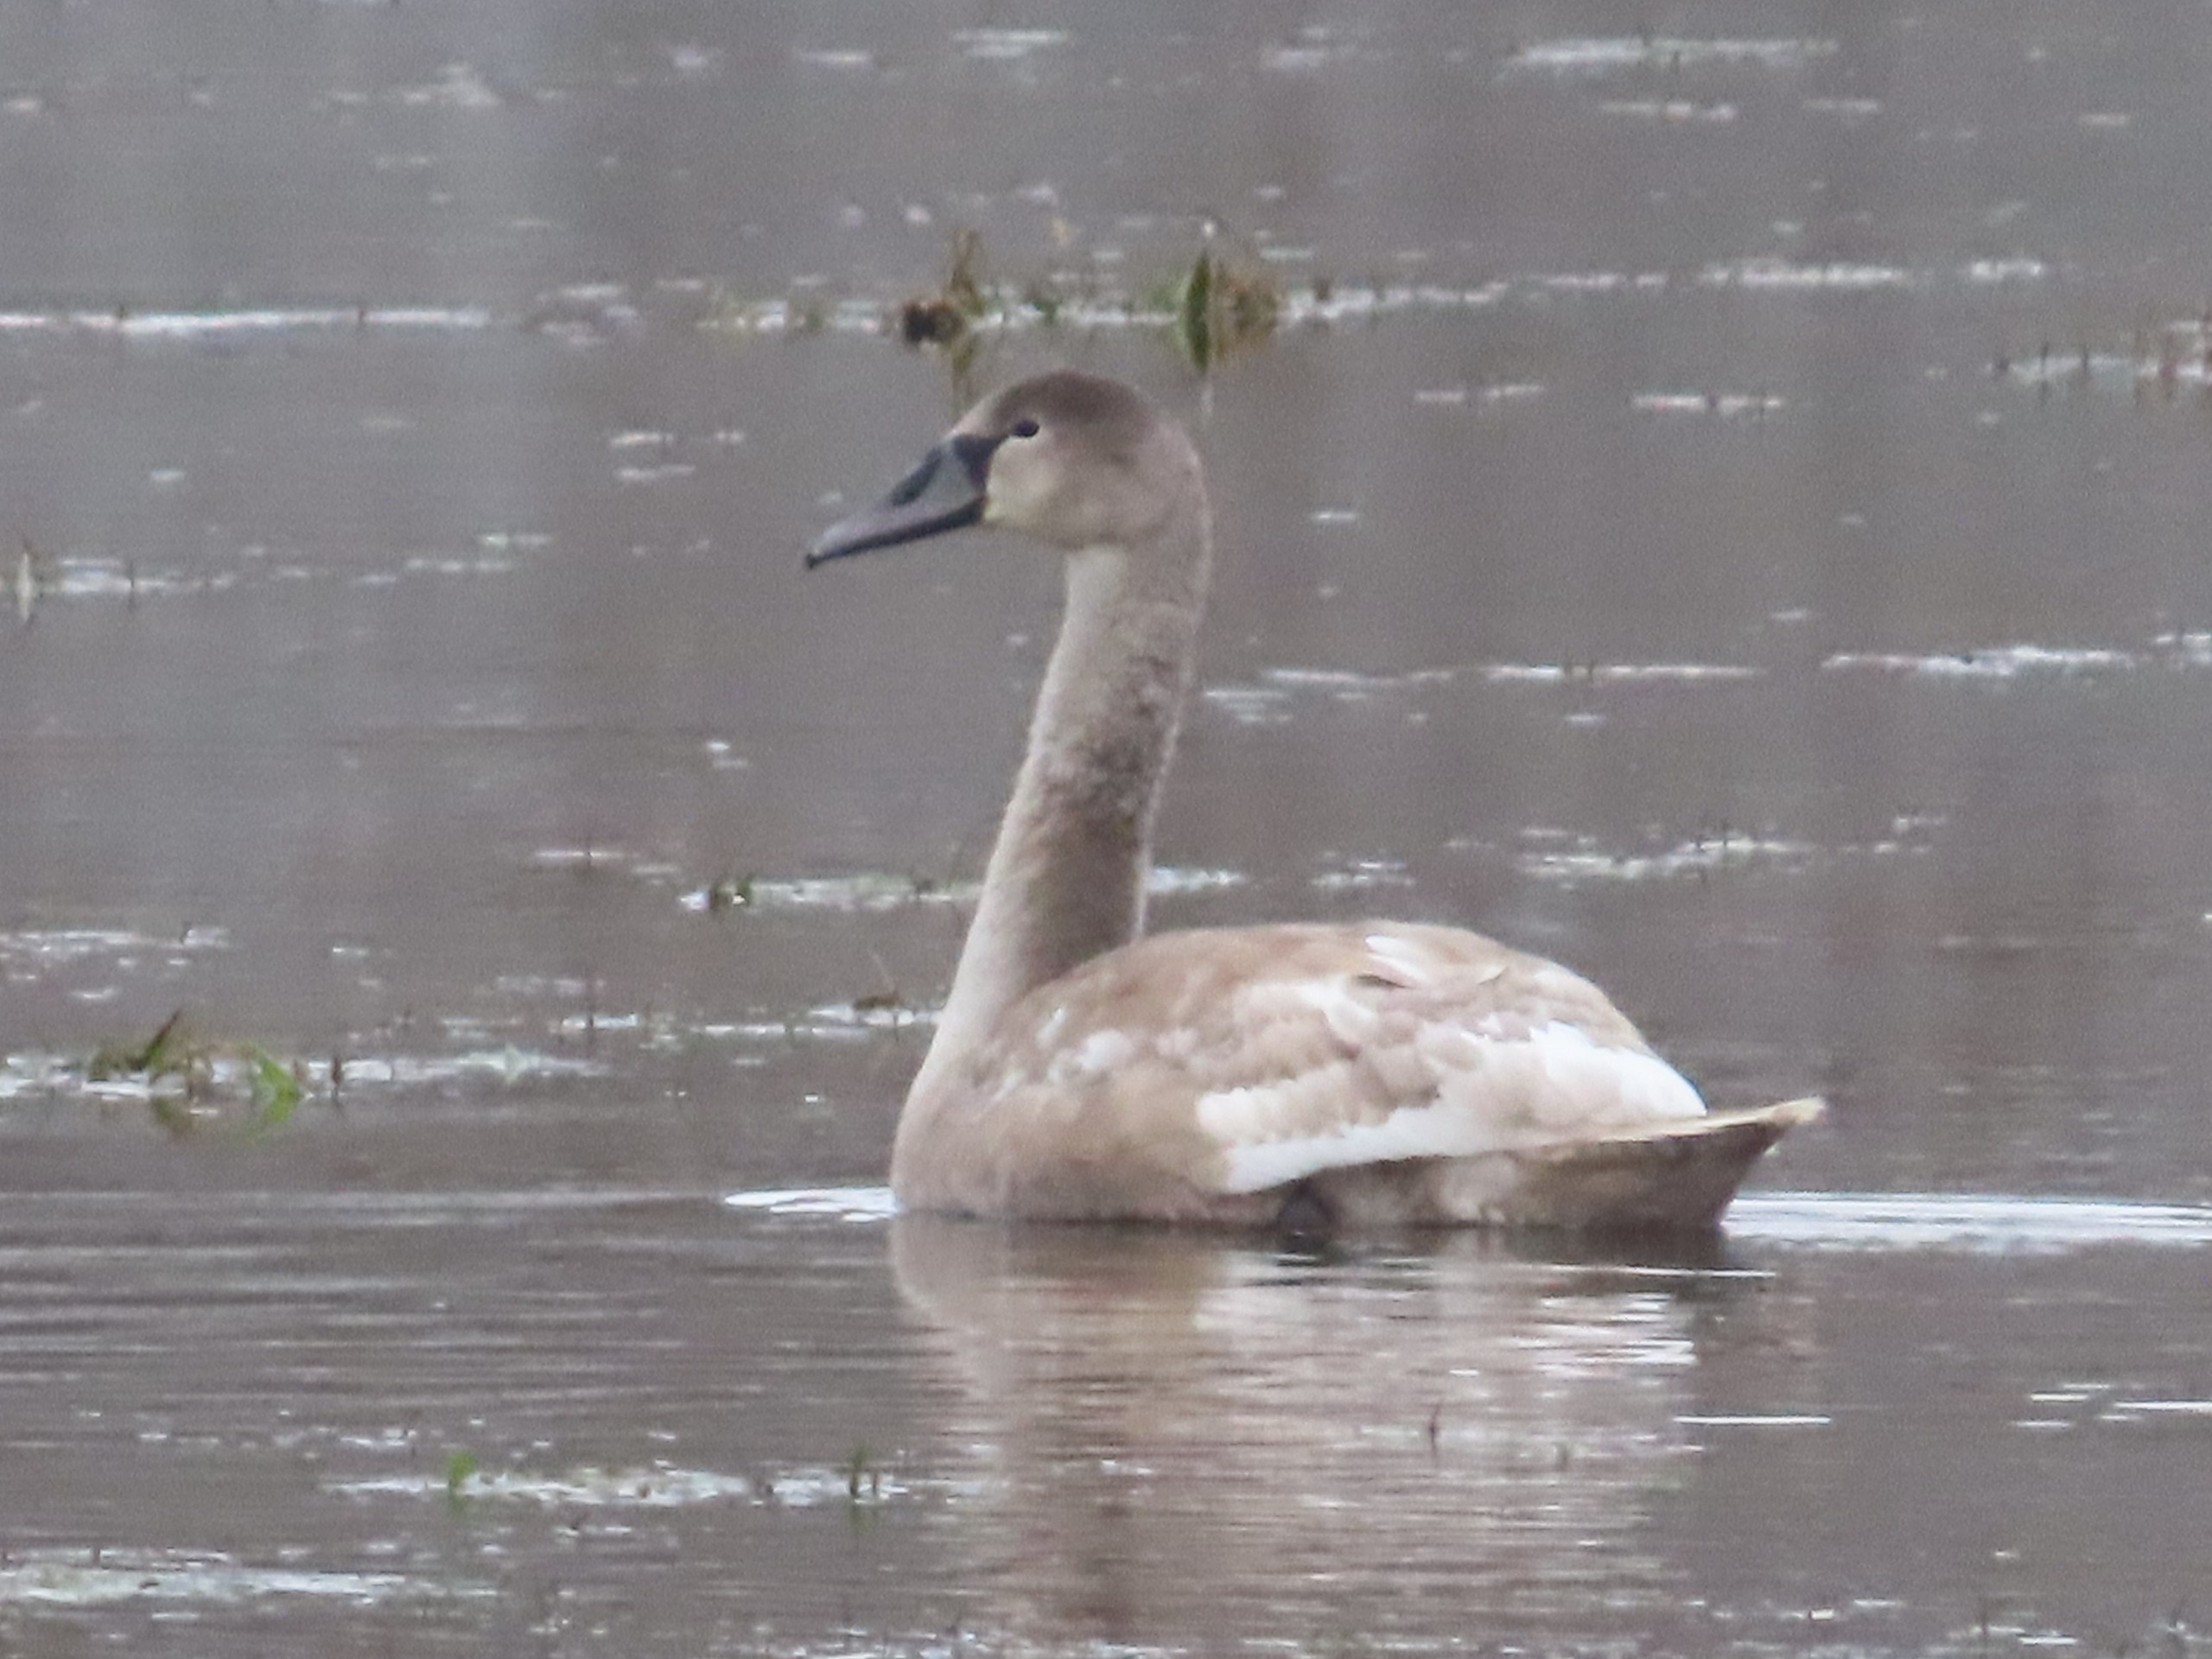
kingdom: Animalia
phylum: Chordata
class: Aves
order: Anseriformes
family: Anatidae
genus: Cygnus
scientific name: Cygnus olor
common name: Knopsvane
